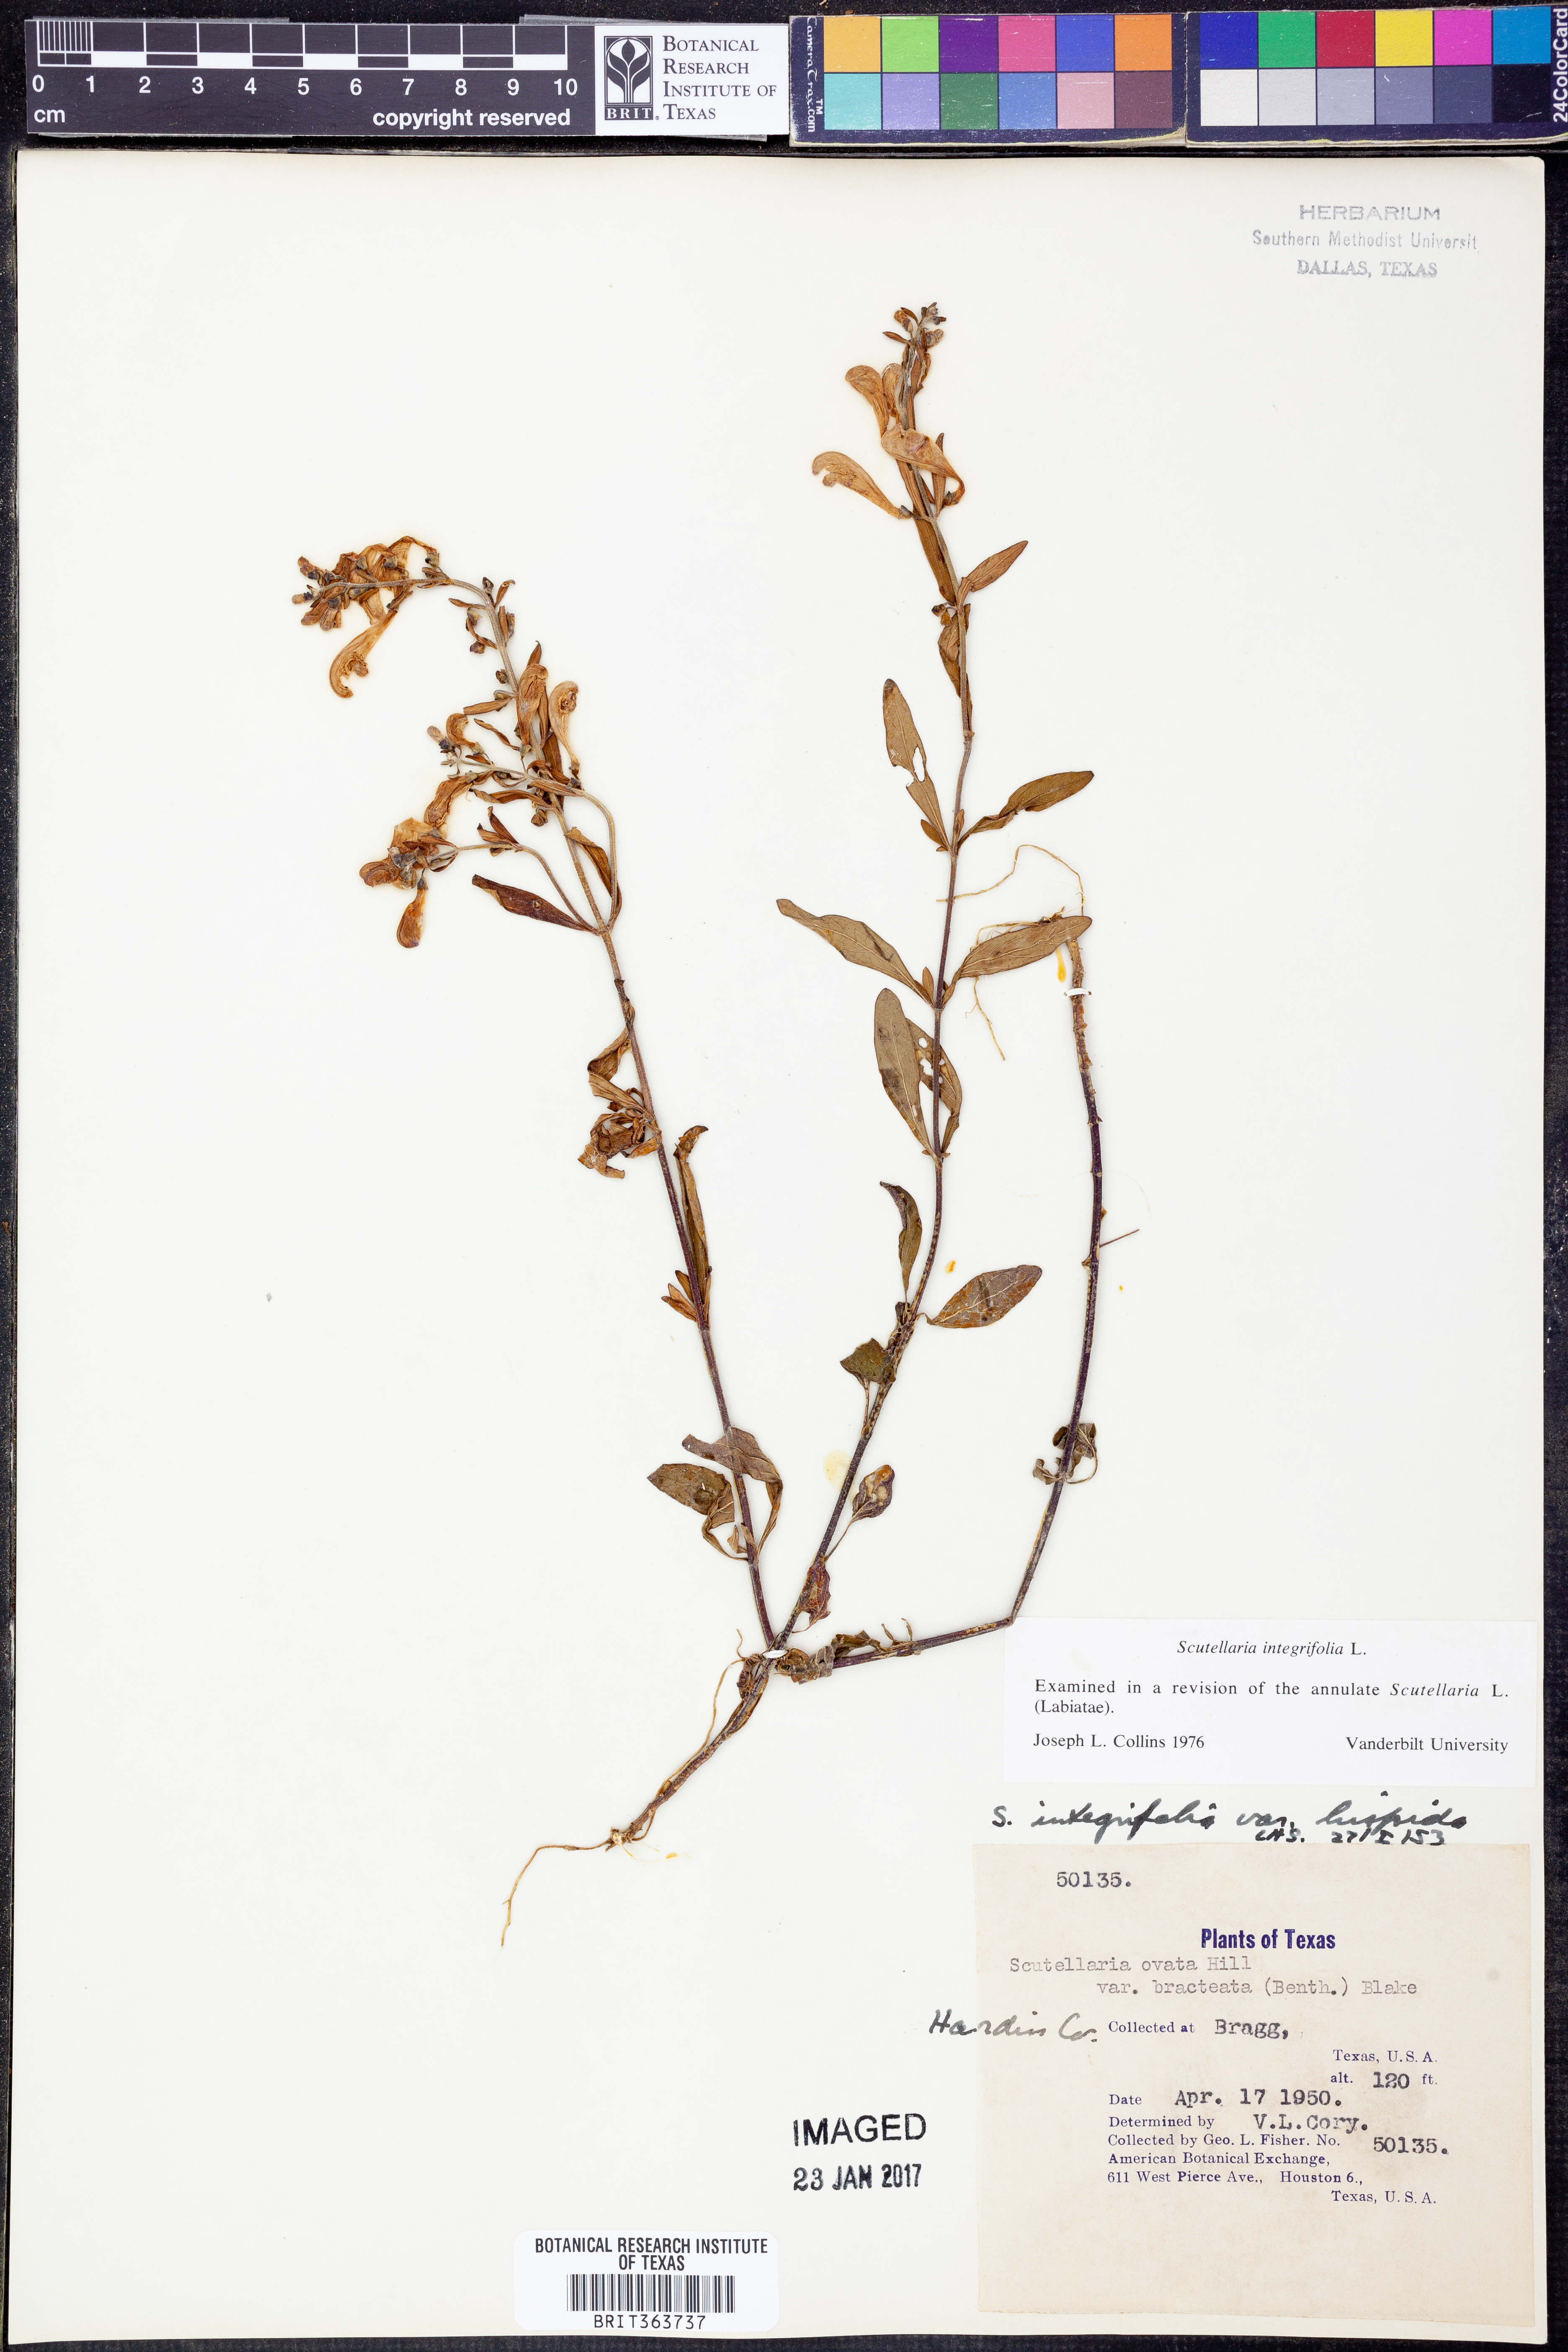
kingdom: Plantae
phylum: Tracheophyta
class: Magnoliopsida
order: Lamiales
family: Lamiaceae
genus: Scutellaria
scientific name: Scutellaria integrifolia
